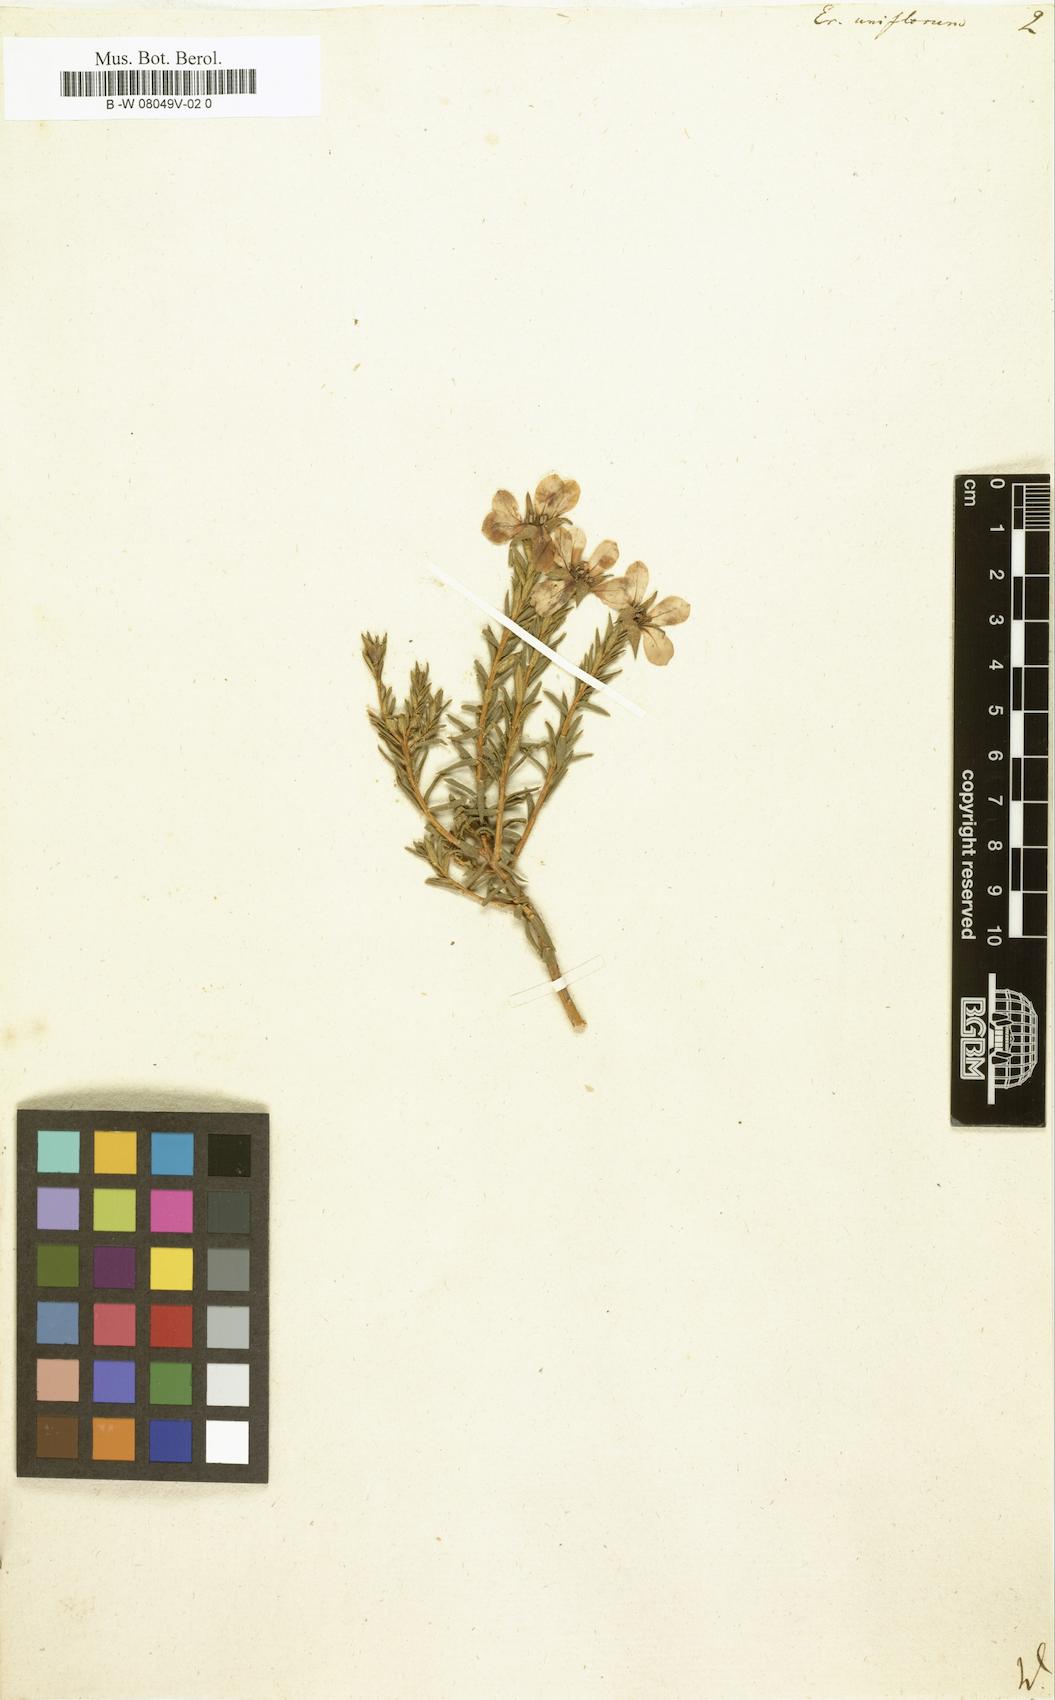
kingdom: Plantae
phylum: Tracheophyta
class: Magnoliopsida
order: Sapindales
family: Rutaceae
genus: Adenandra
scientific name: Adenandra uniflora
